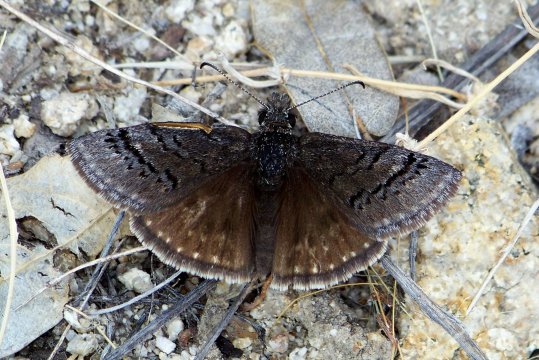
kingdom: Animalia
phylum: Arthropoda
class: Insecta
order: Lepidoptera
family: Hesperiidae
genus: Erynnis
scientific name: Erynnis brizo
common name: Sleepy Duskywing
